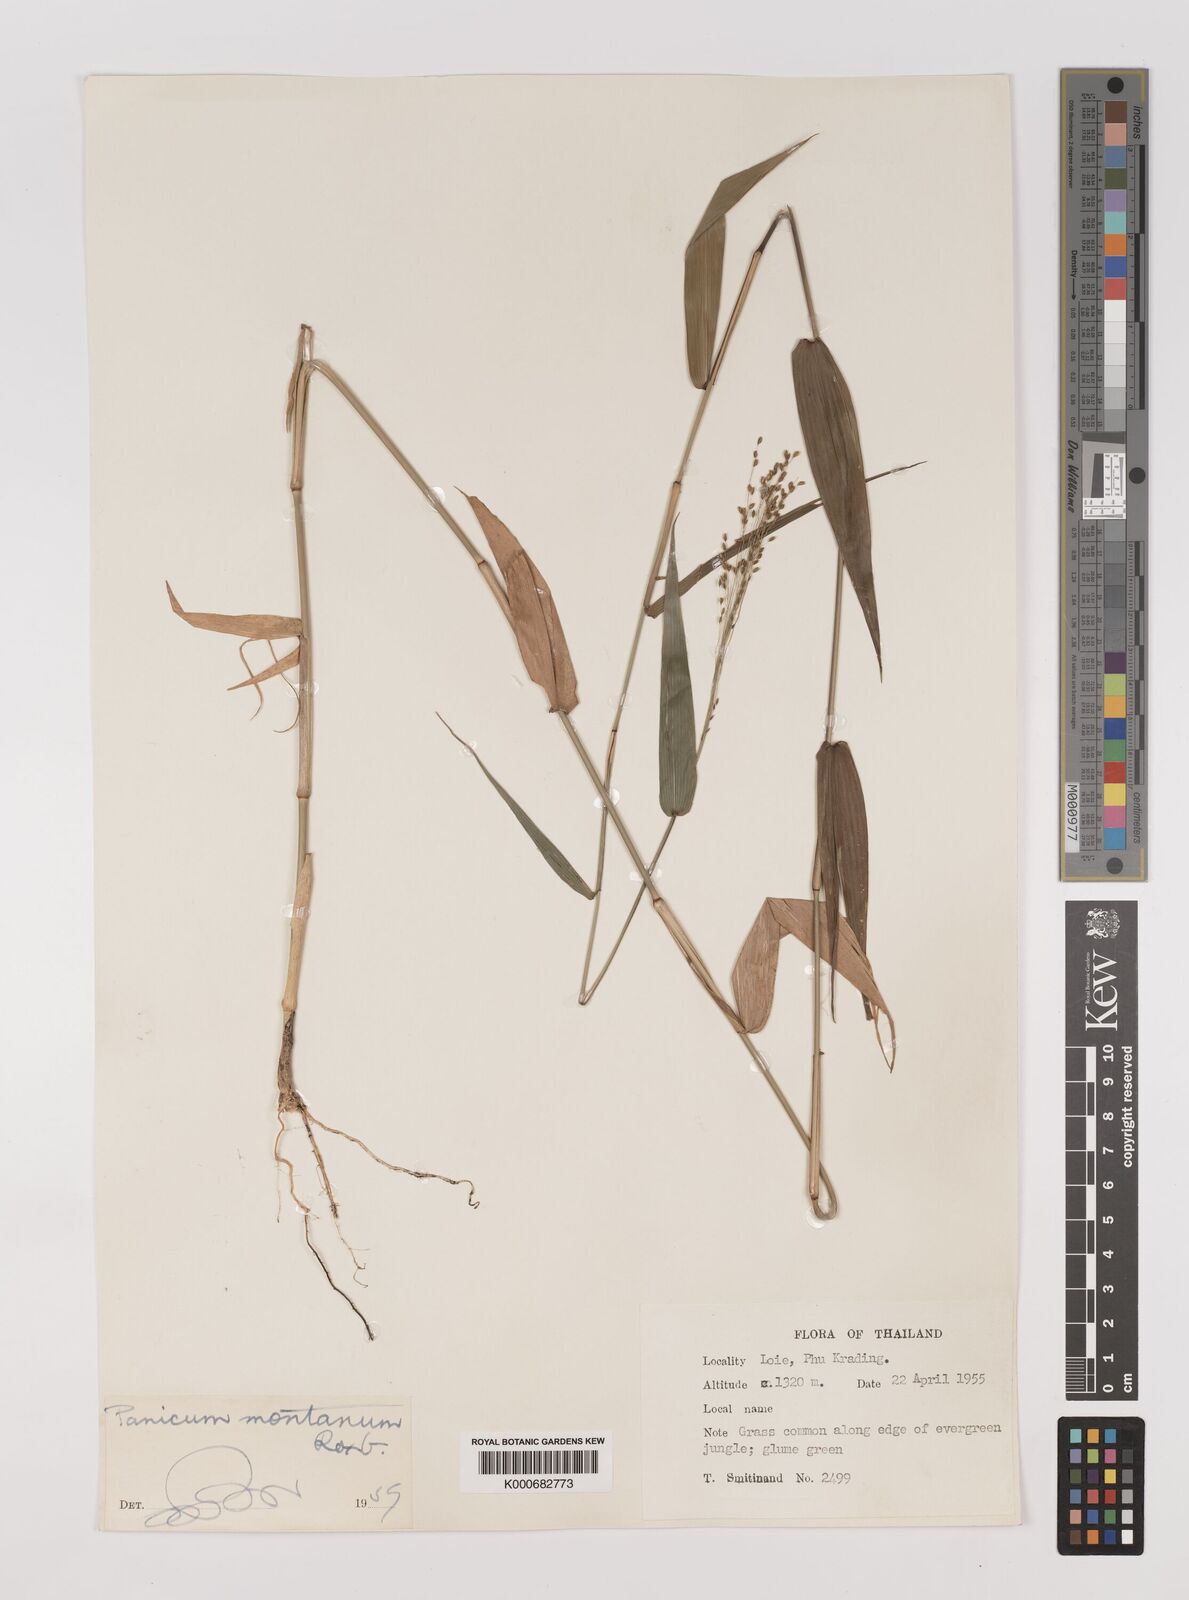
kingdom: Plantae
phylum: Tracheophyta
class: Liliopsida
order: Poales
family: Poaceae
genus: Panicum
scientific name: Panicum notatum
